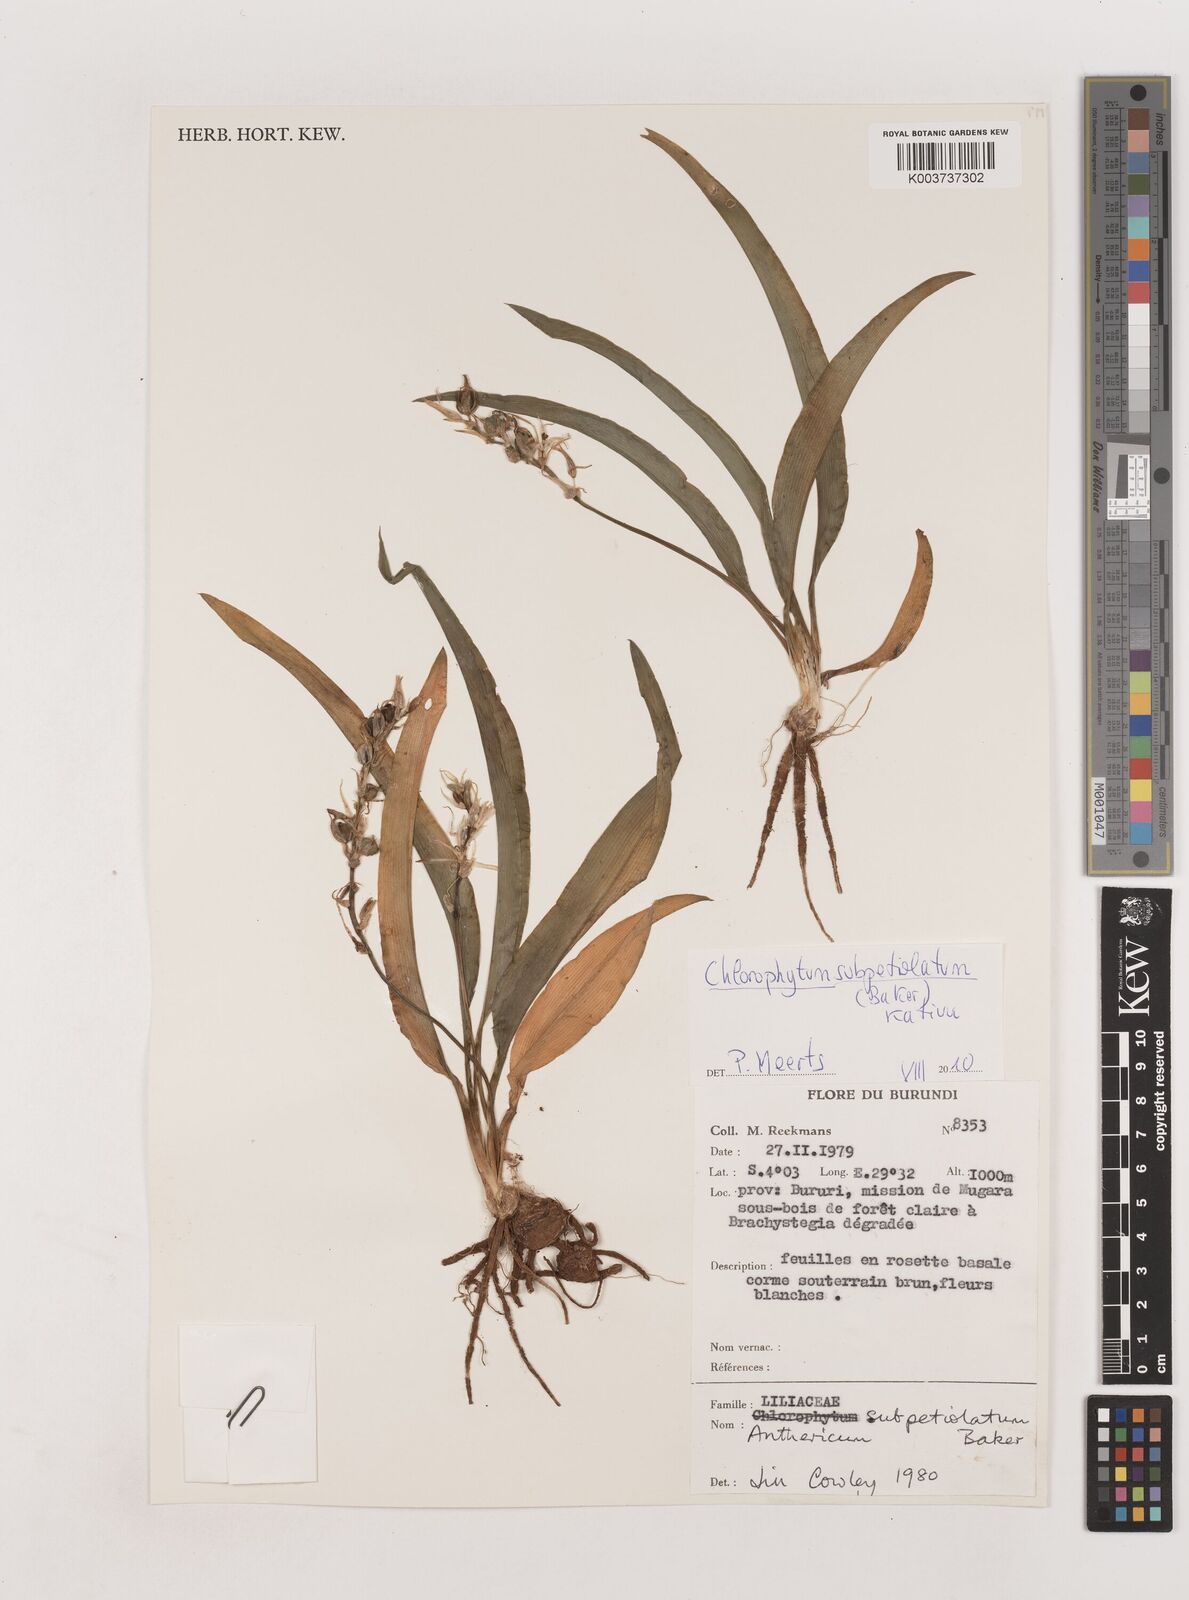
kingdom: Plantae
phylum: Tracheophyta
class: Liliopsida
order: Asparagales
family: Asparagaceae
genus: Chlorophytum
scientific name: Chlorophytum subpetiolatum
